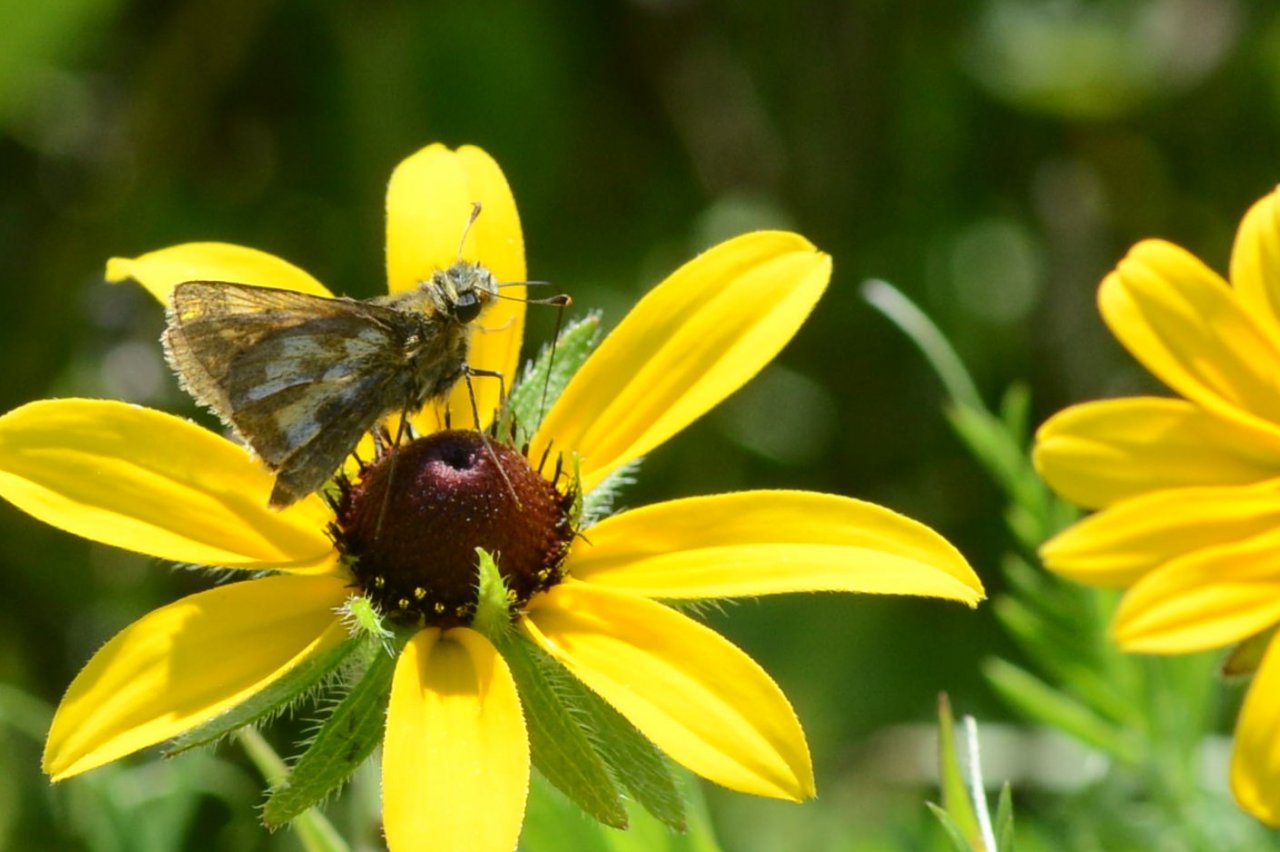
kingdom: Animalia
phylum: Arthropoda
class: Insecta
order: Lepidoptera
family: Hesperiidae
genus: Polites
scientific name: Polites coras
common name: Peck's Skipper
